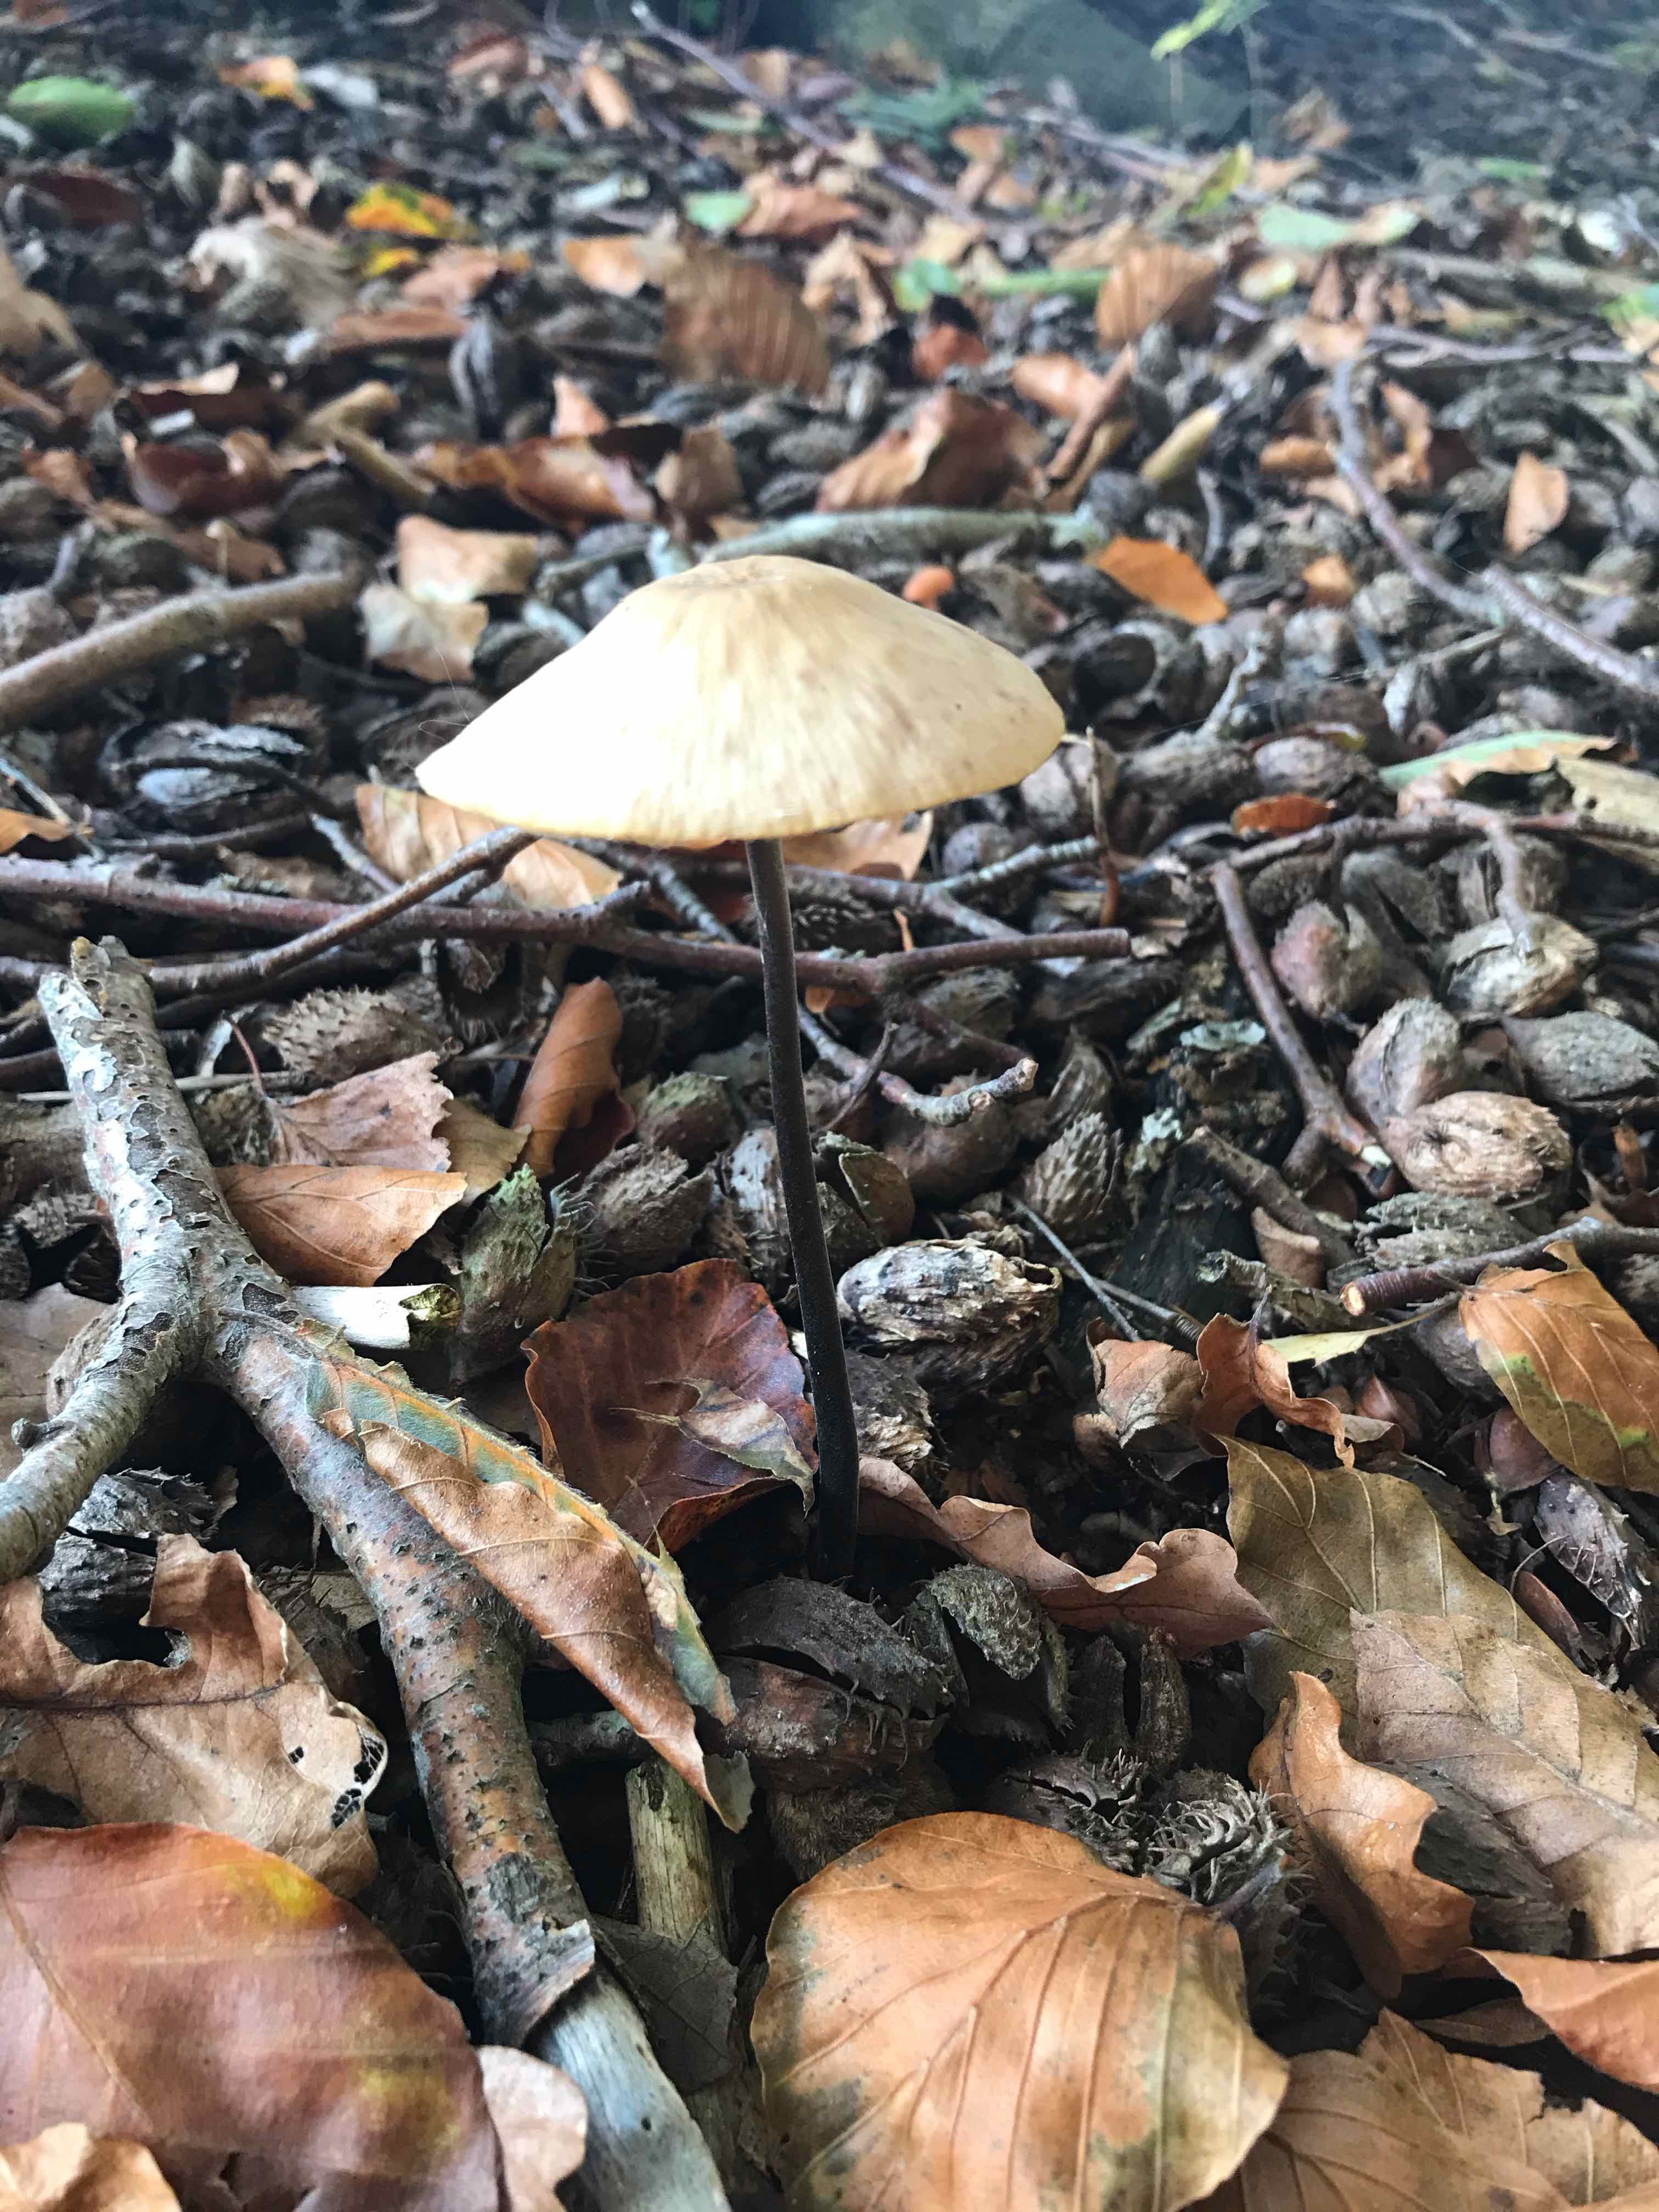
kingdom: Fungi
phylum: Basidiomycota
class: Agaricomycetes
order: Agaricales
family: Omphalotaceae
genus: Mycetinis
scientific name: Mycetinis alliaceus
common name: stor løghat
